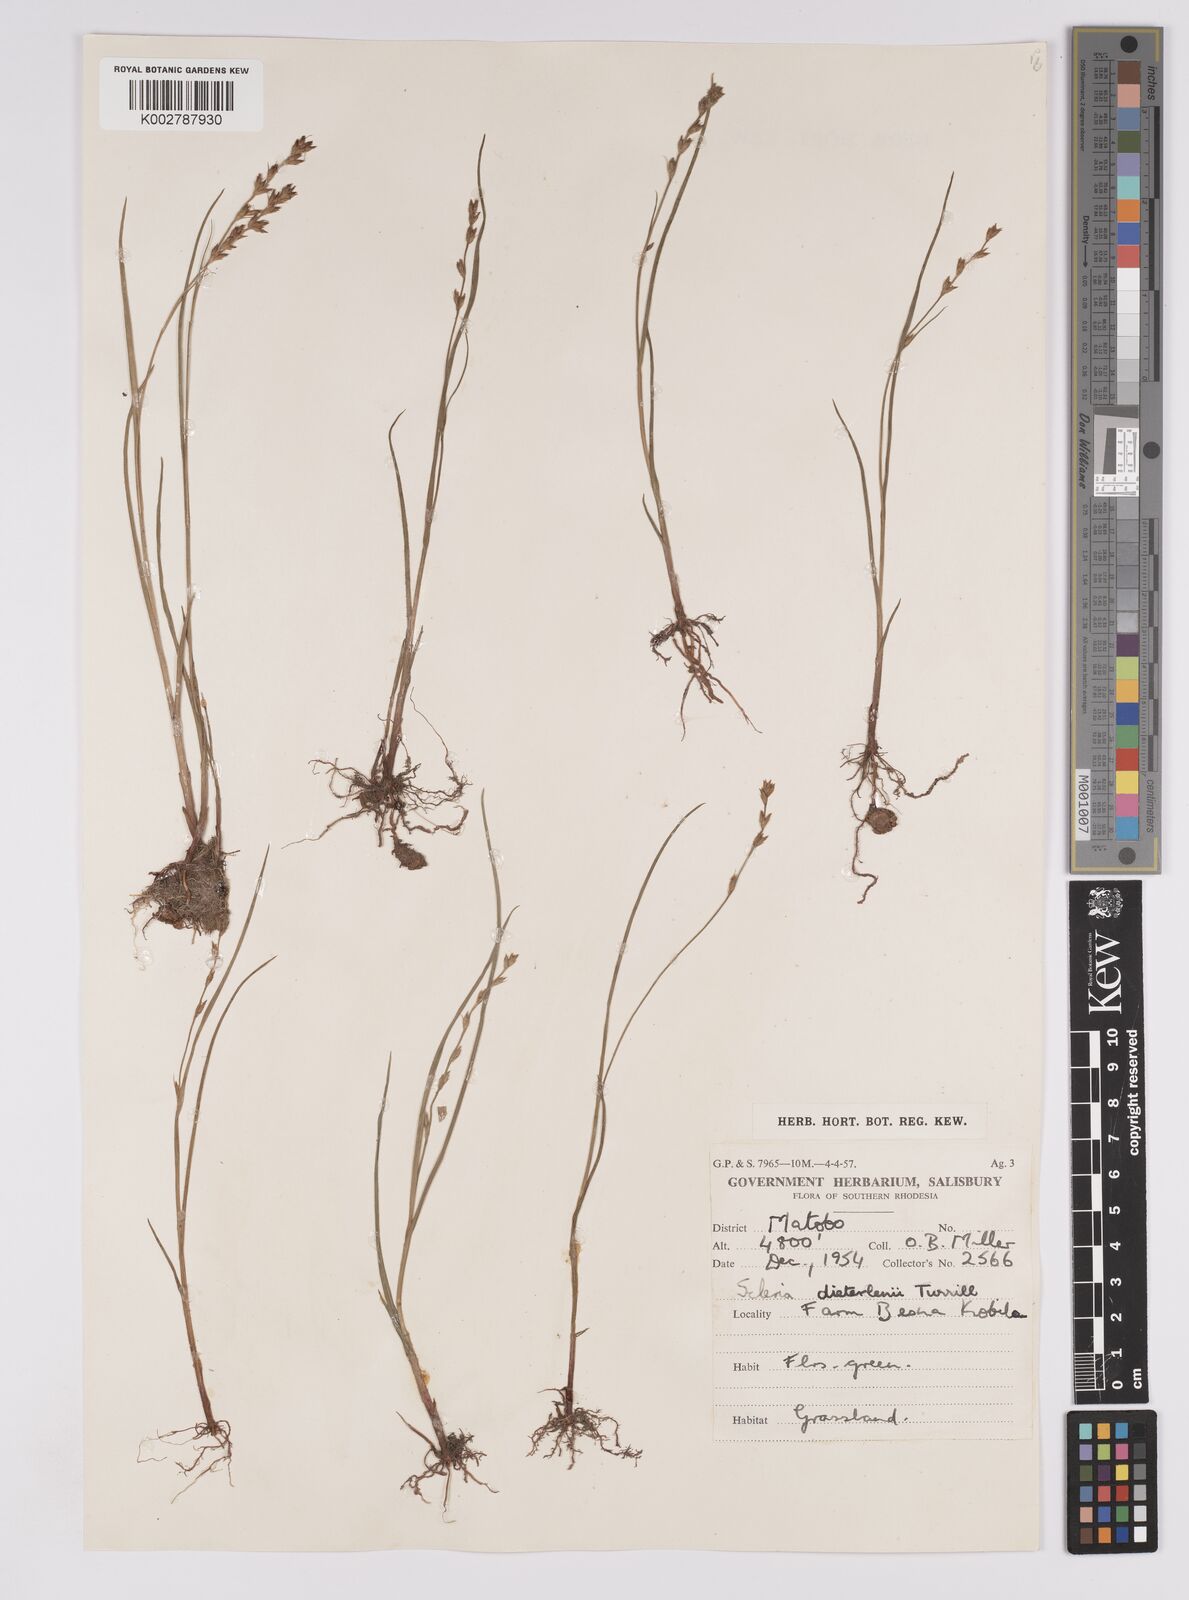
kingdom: Plantae
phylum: Tracheophyta
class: Liliopsida
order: Poales
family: Cyperaceae
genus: Scleria
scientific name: Scleria flexuosa
